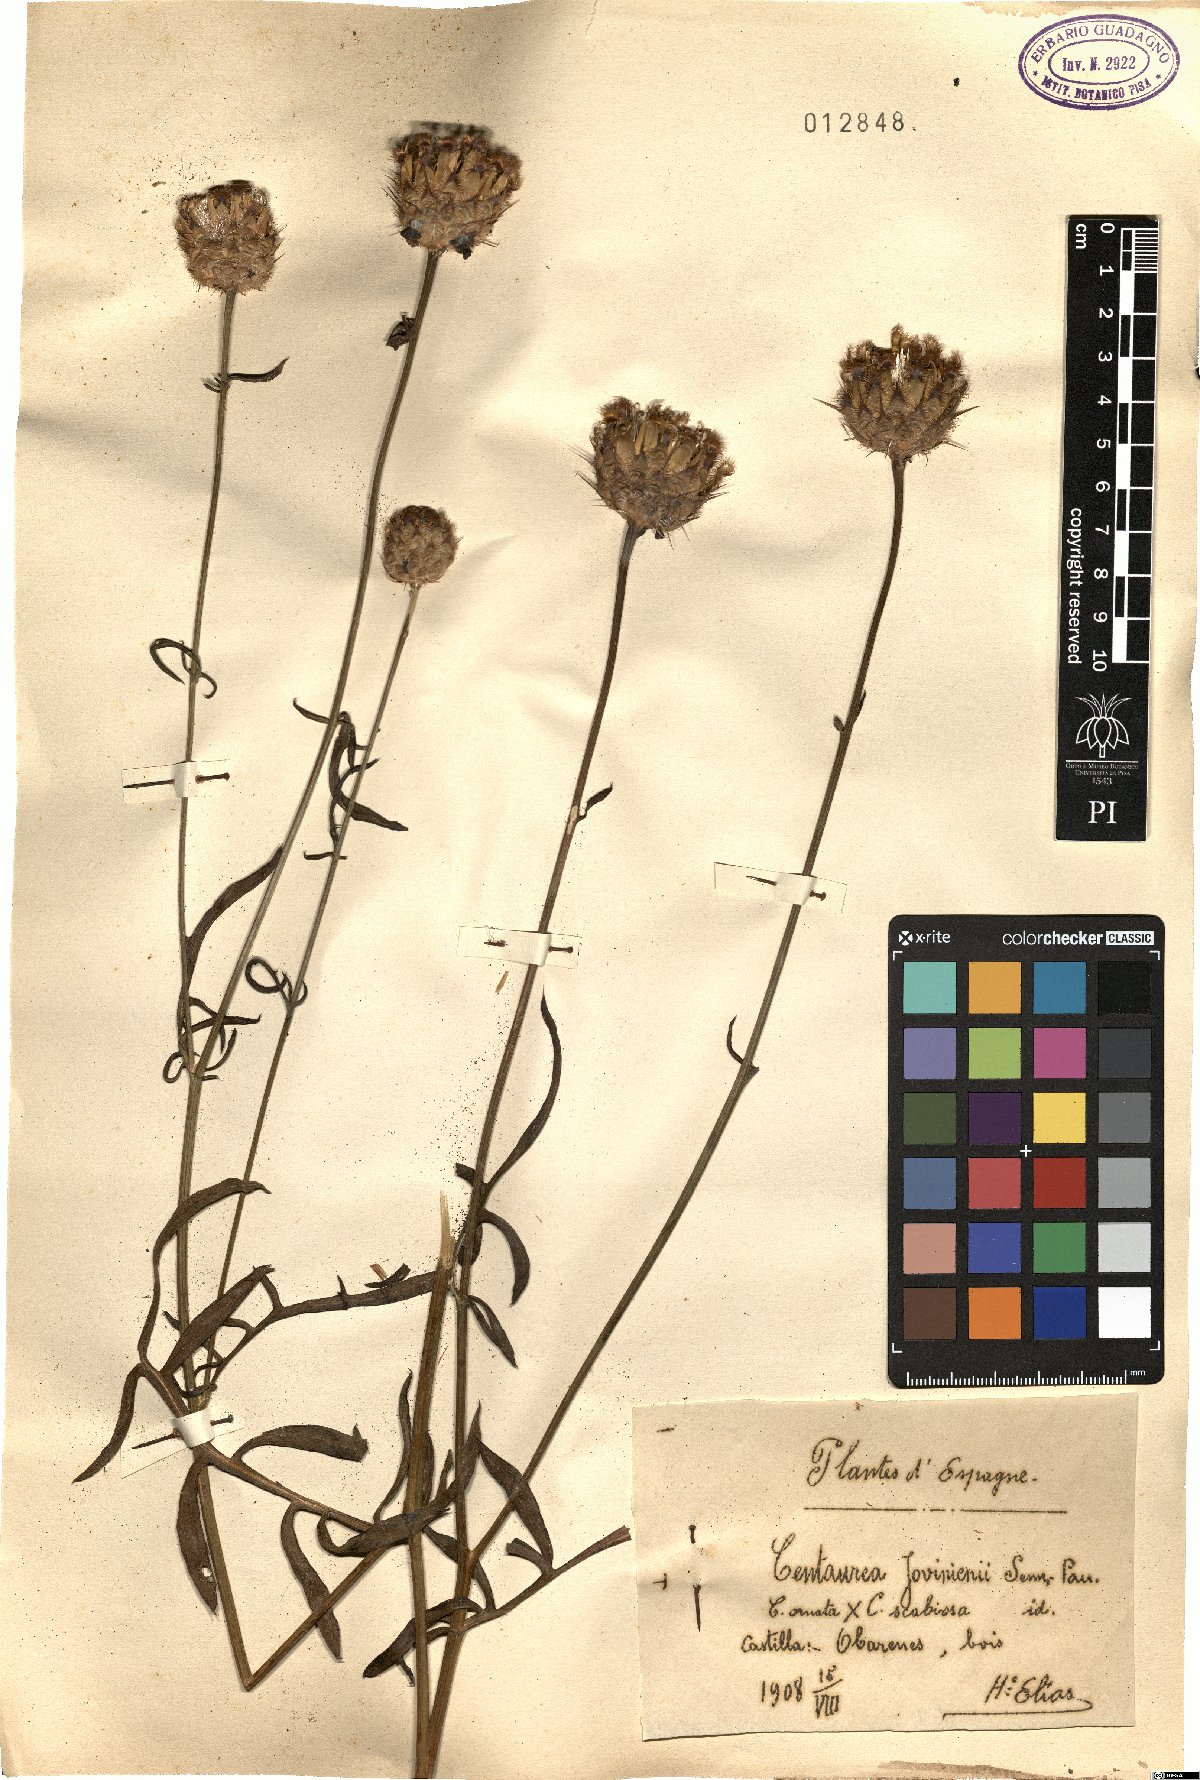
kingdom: Plantae
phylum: Tracheophyta
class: Magnoliopsida
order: Asterales
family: Asteraceae
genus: Centaurea
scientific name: Centaurea polymorpha
